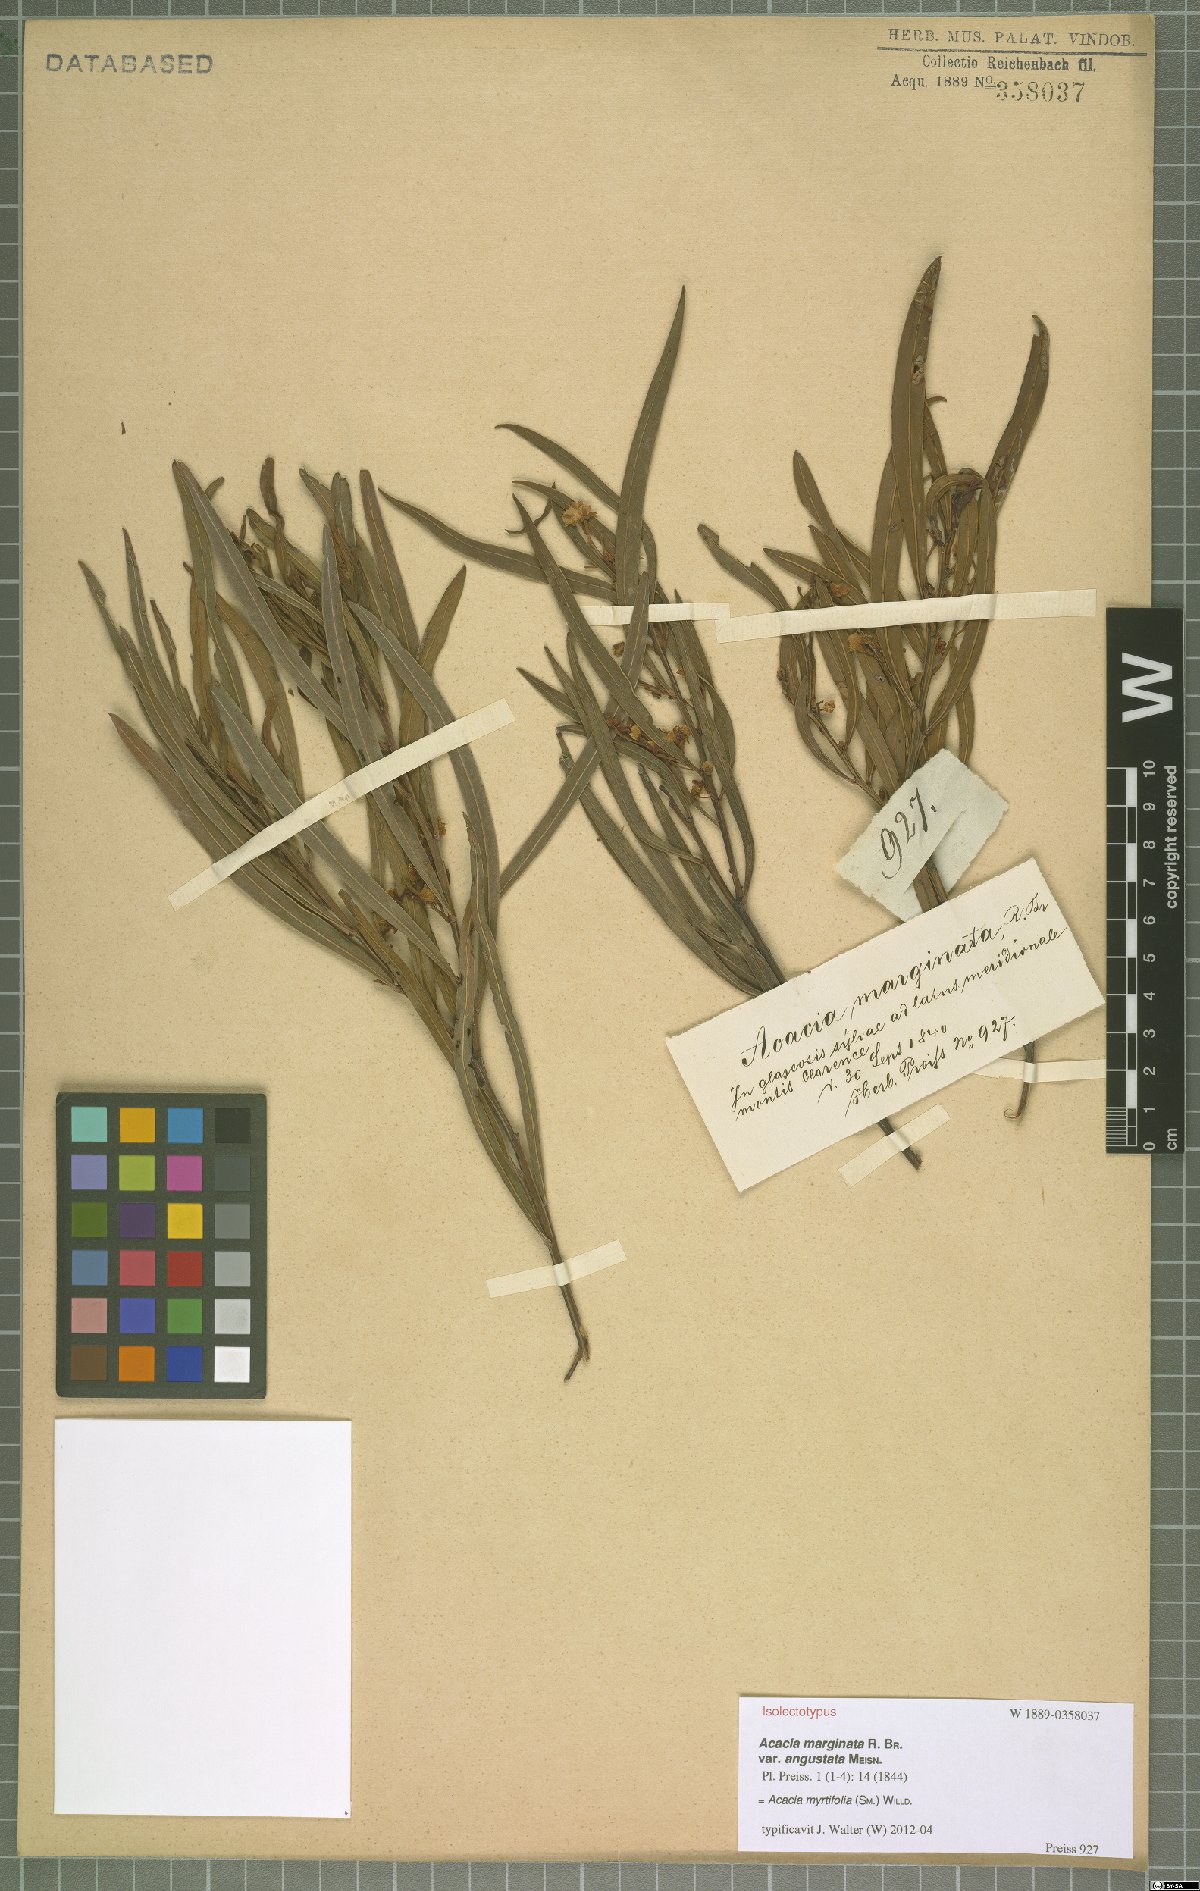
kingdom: Plantae
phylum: Tracheophyta
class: Magnoliopsida
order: Fabales
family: Fabaceae
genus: Acacia
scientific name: Acacia myrtifolia
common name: Myrtle wattle
